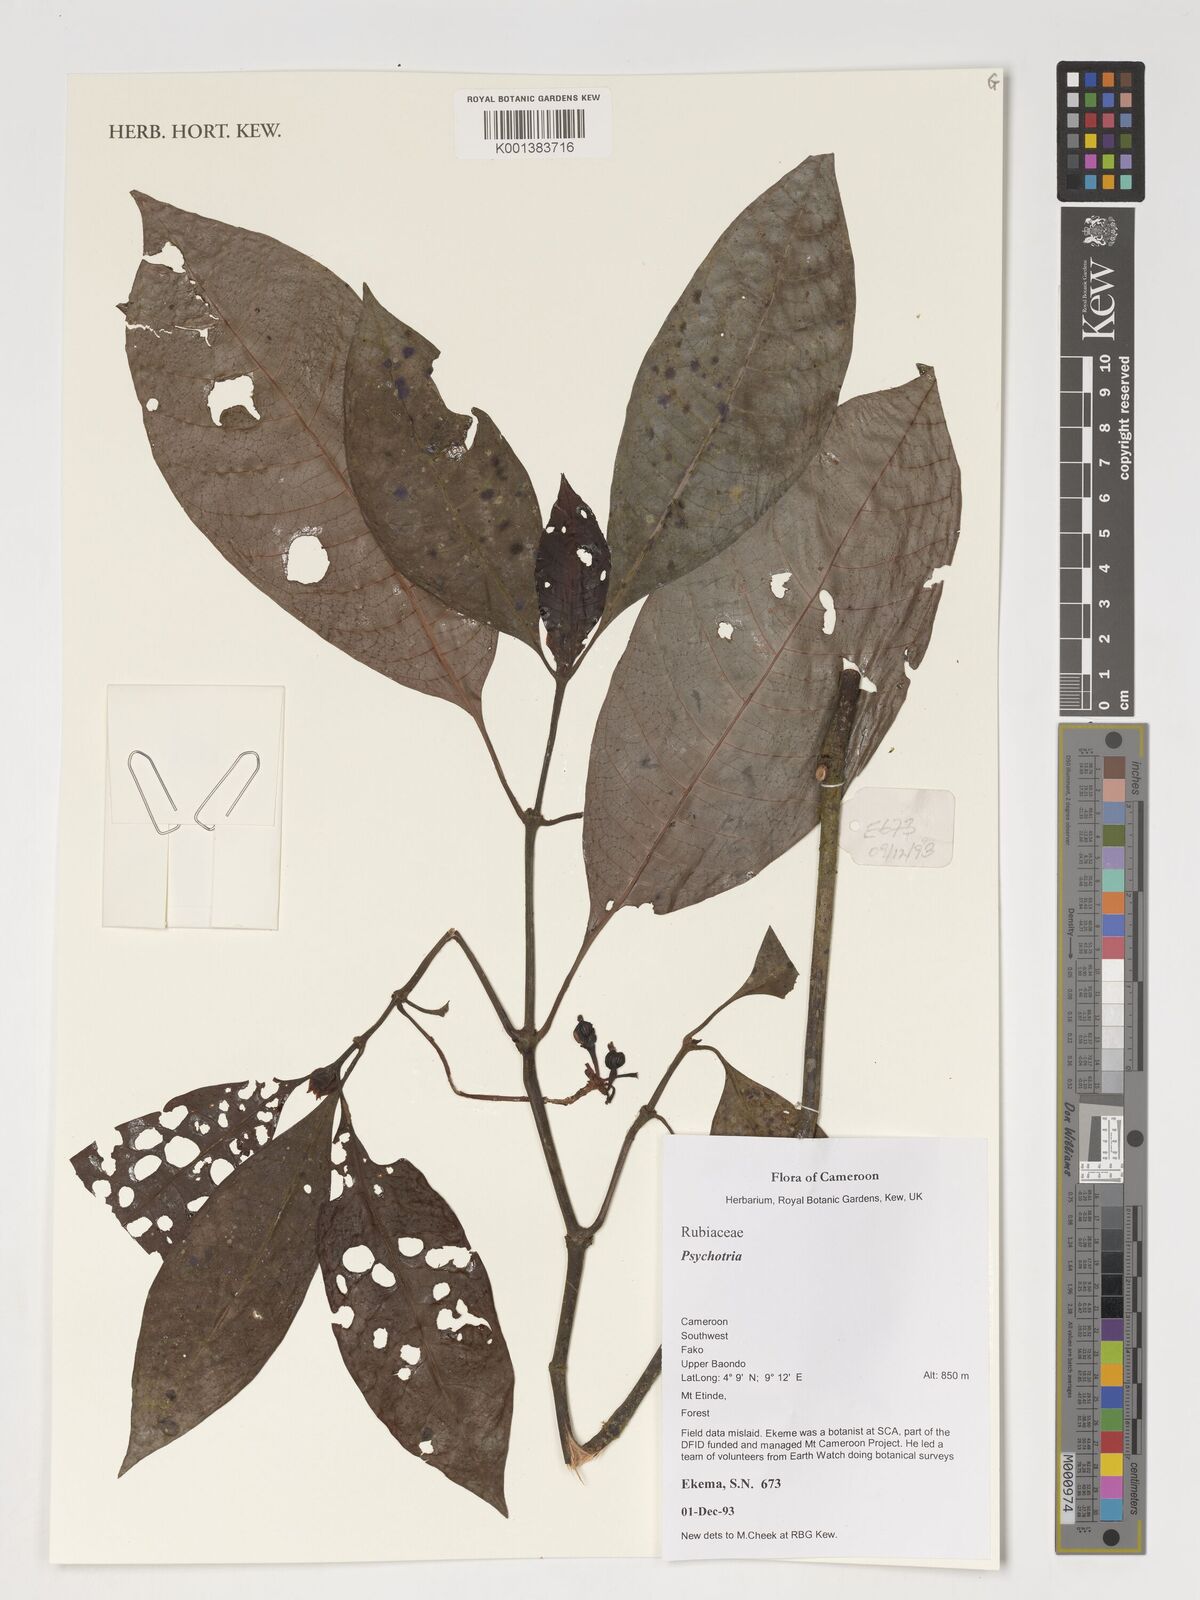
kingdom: Plantae
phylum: Tracheophyta
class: Magnoliopsida
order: Gentianales
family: Rubiaceae
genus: Psychotria
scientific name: Psychotria
